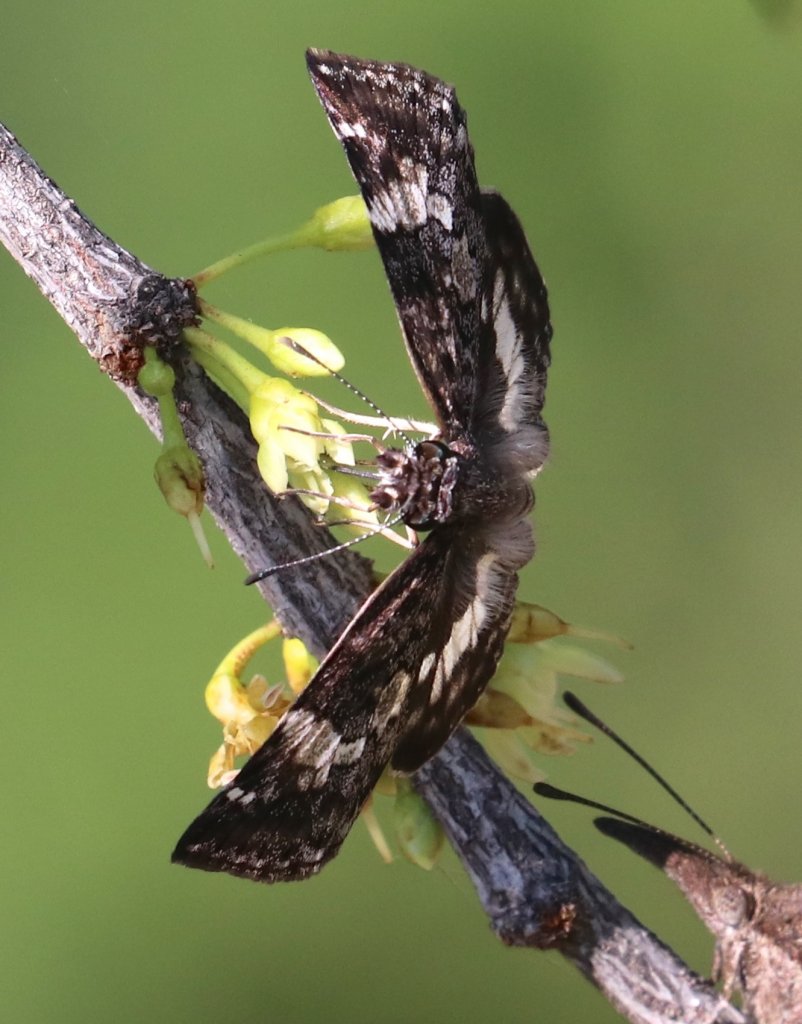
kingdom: Animalia
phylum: Arthropoda
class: Insecta
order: Lepidoptera
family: Hesperiidae
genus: Chiomara
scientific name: Chiomara asychis
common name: White-patched Skipper
